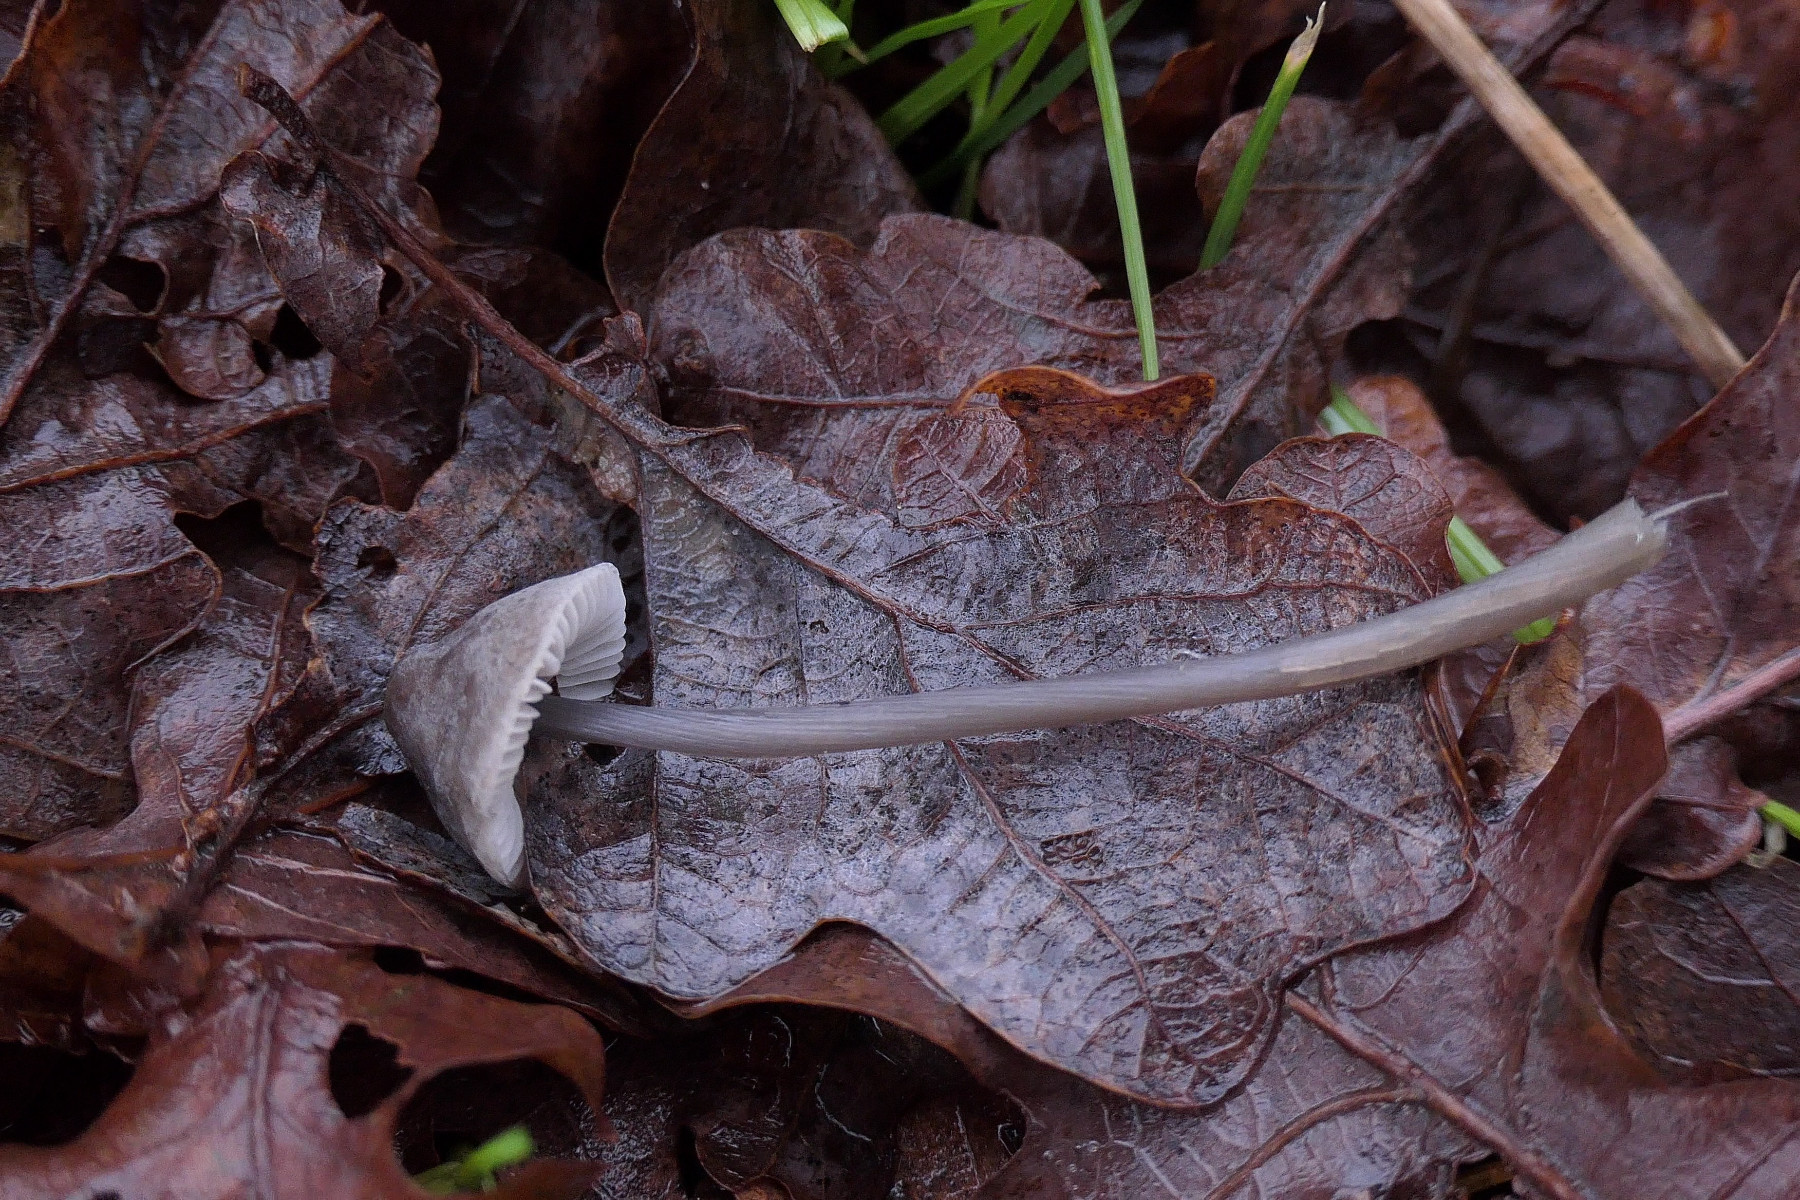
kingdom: Fungi
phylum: Basidiomycota
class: Agaricomycetes
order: Agaricales
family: Mycenaceae
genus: Mycena
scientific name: Mycena polygramma
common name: mangestribet huesvamp
